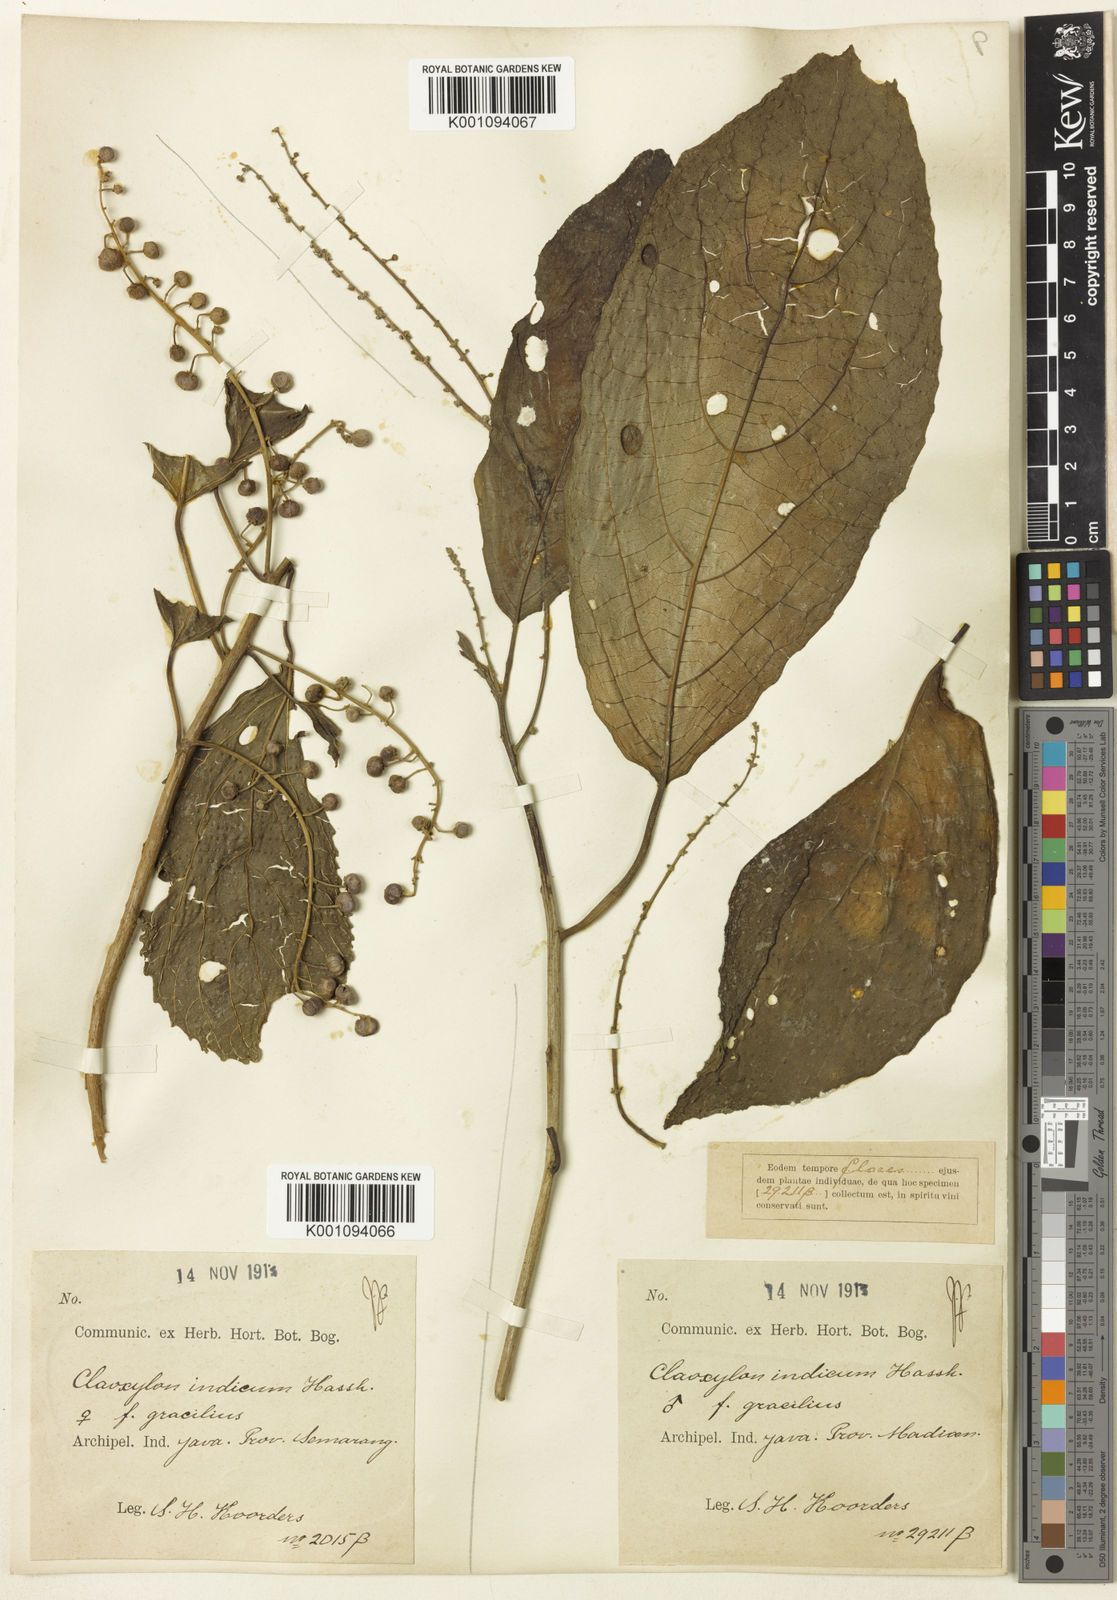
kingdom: Plantae
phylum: Tracheophyta
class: Magnoliopsida
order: Malpighiales
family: Euphorbiaceae
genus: Claoxylon
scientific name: Claoxylon indicum
